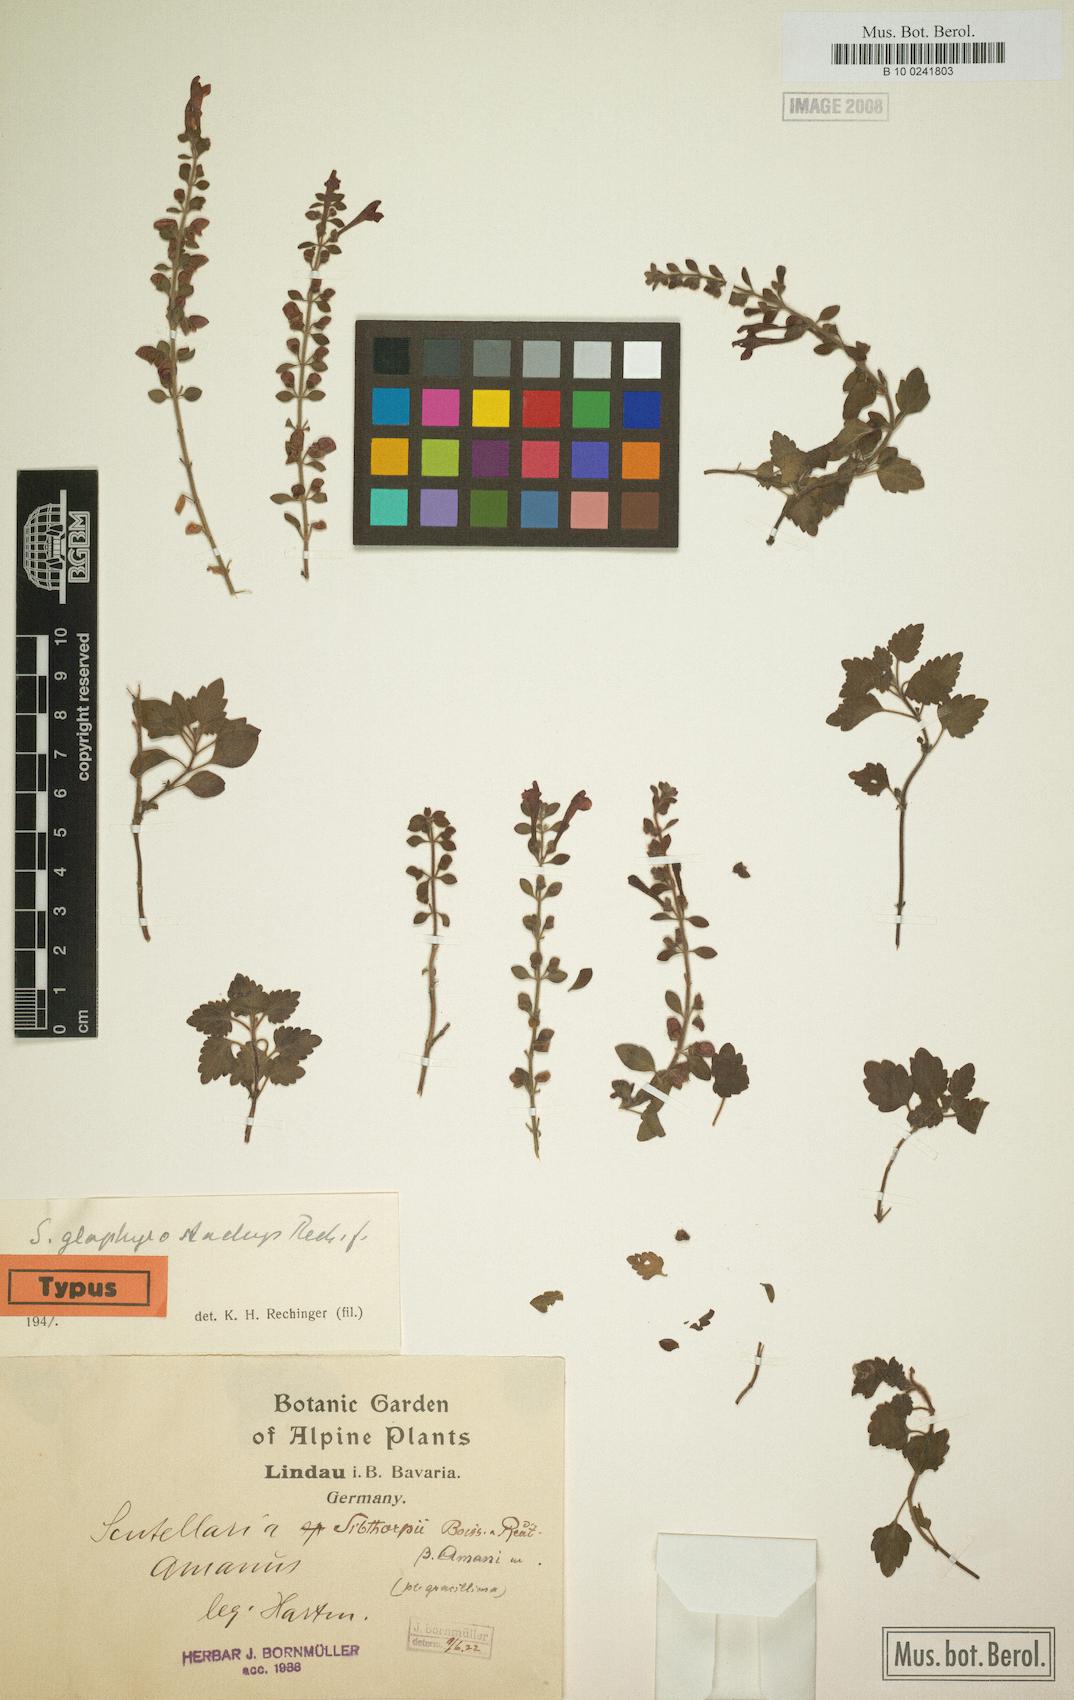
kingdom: Plantae
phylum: Tracheophyta
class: Magnoliopsida
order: Lamiales
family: Lamiaceae
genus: Scutellaria
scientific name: Scutellaria glaphymstachys
